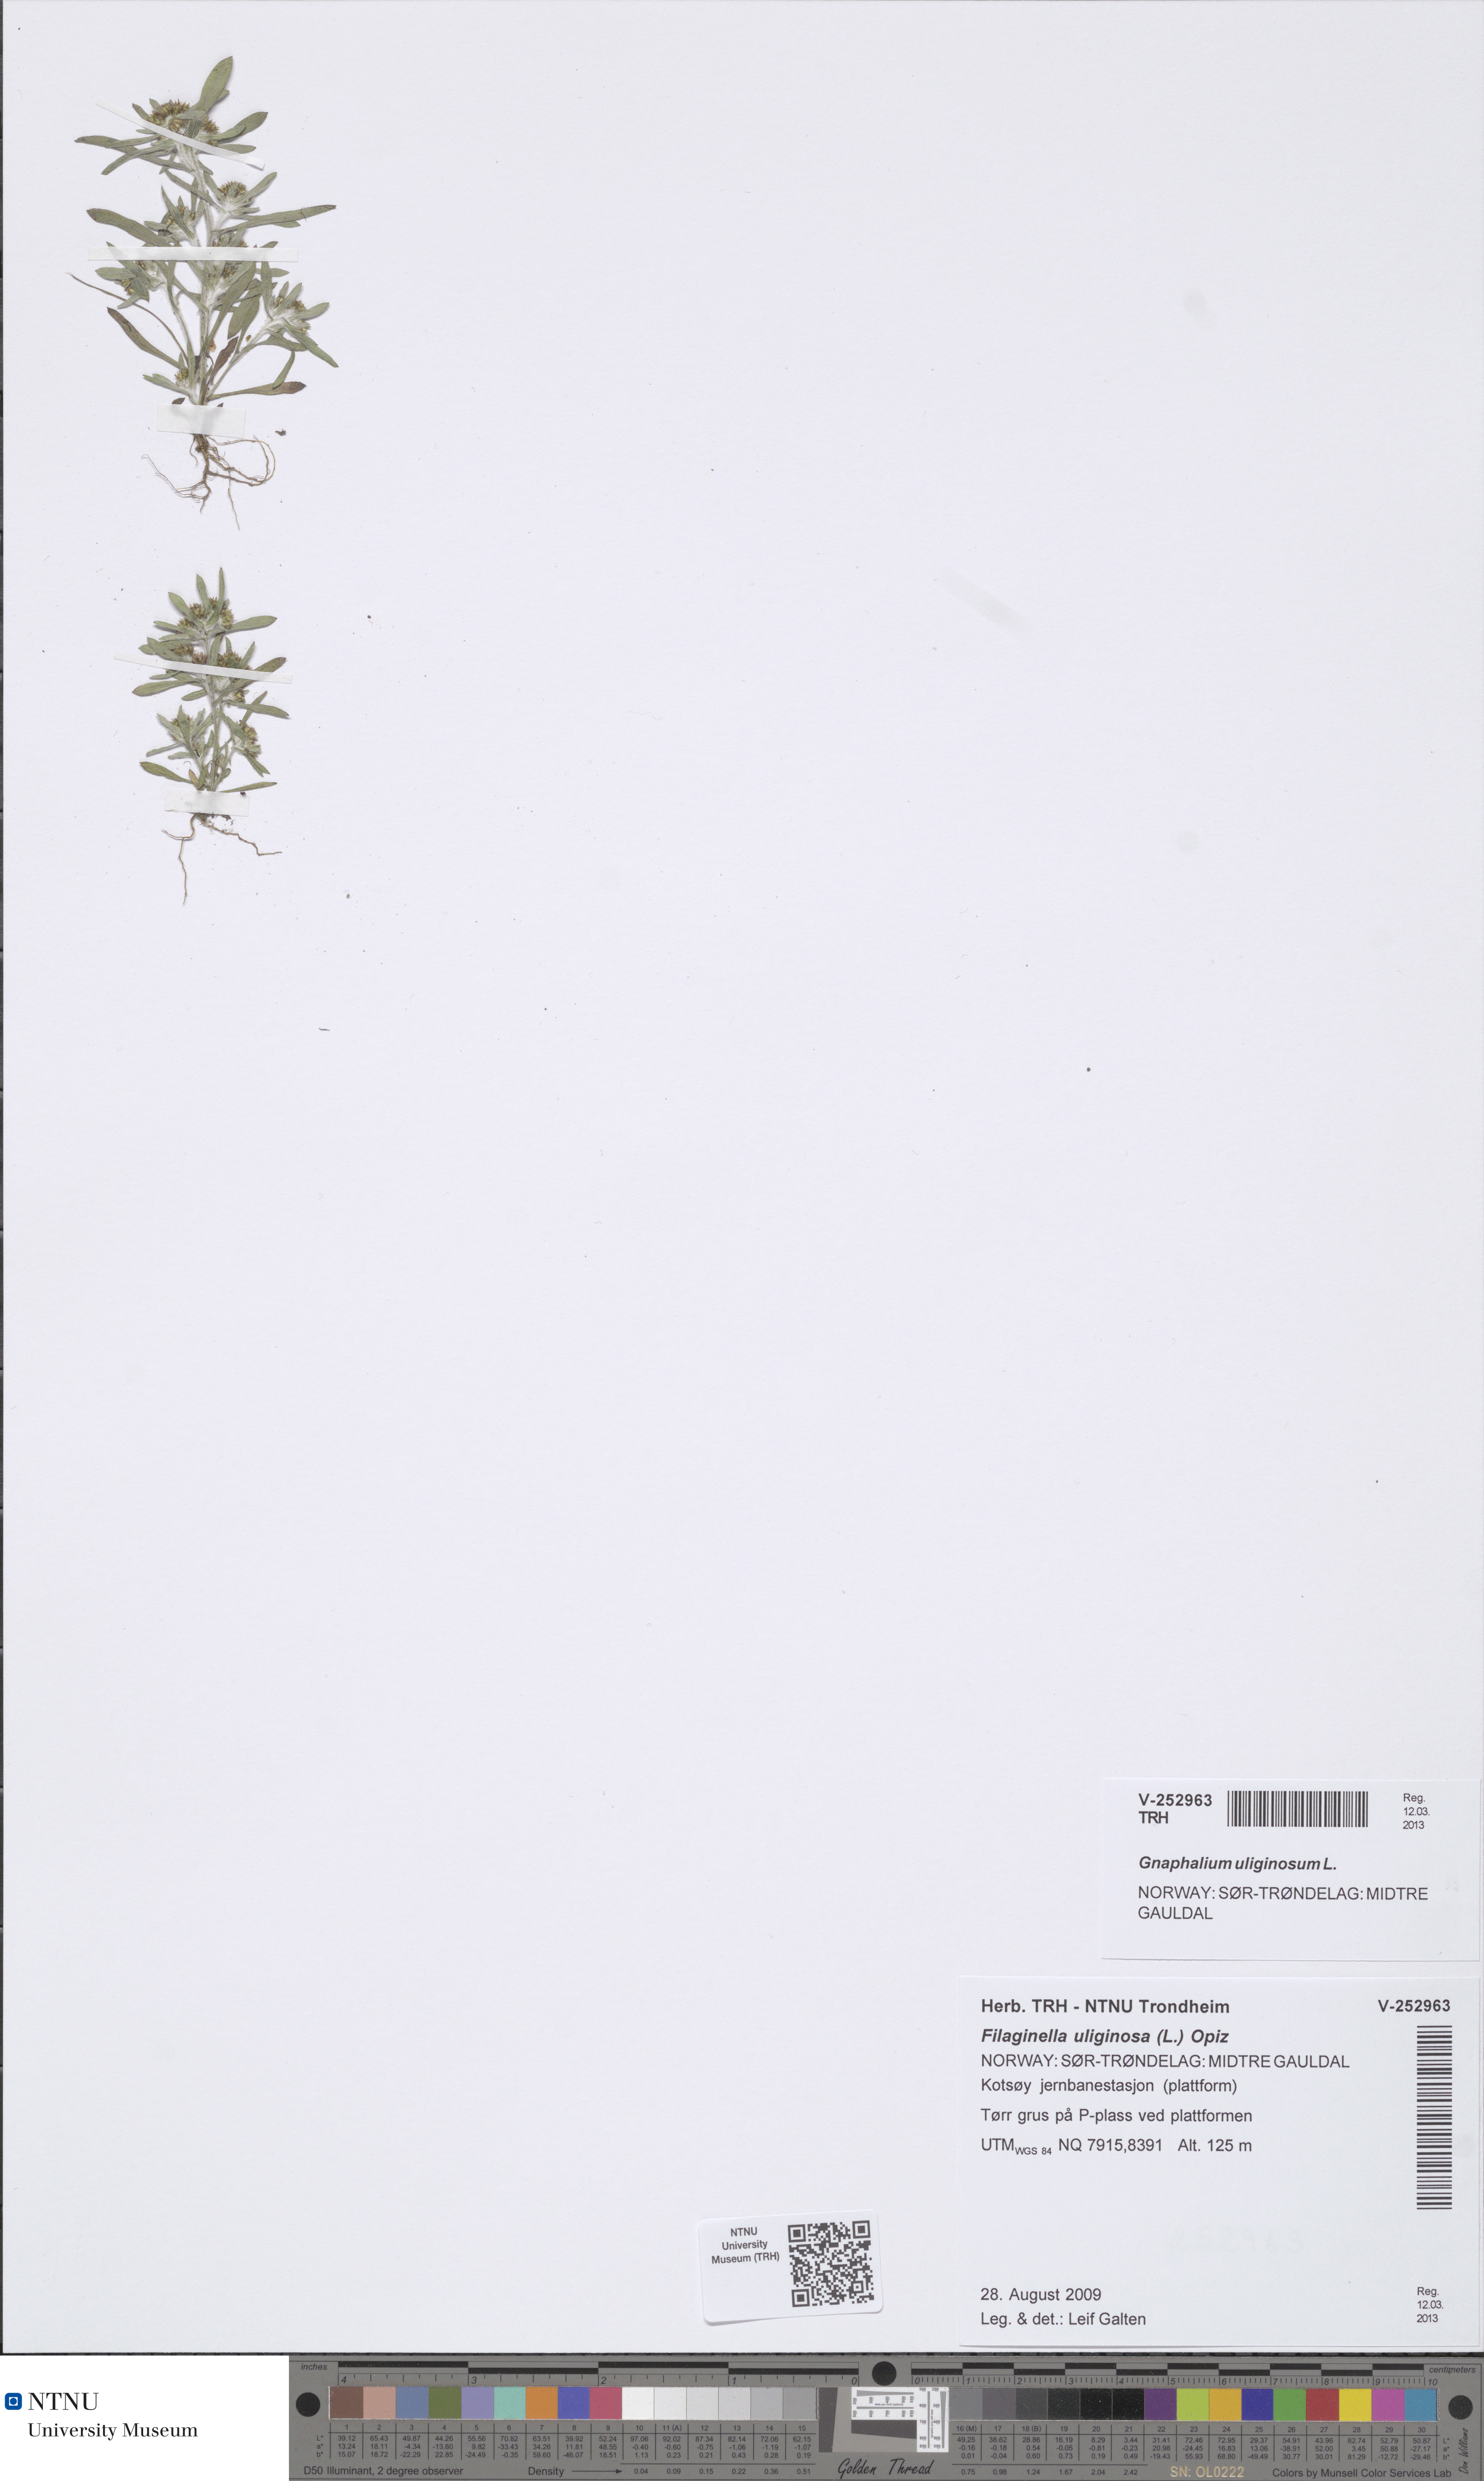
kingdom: Plantae
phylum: Tracheophyta
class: Magnoliopsida
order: Asterales
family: Asteraceae
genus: Gnaphalium
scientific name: Gnaphalium uliginosum
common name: Marsh cudweed
